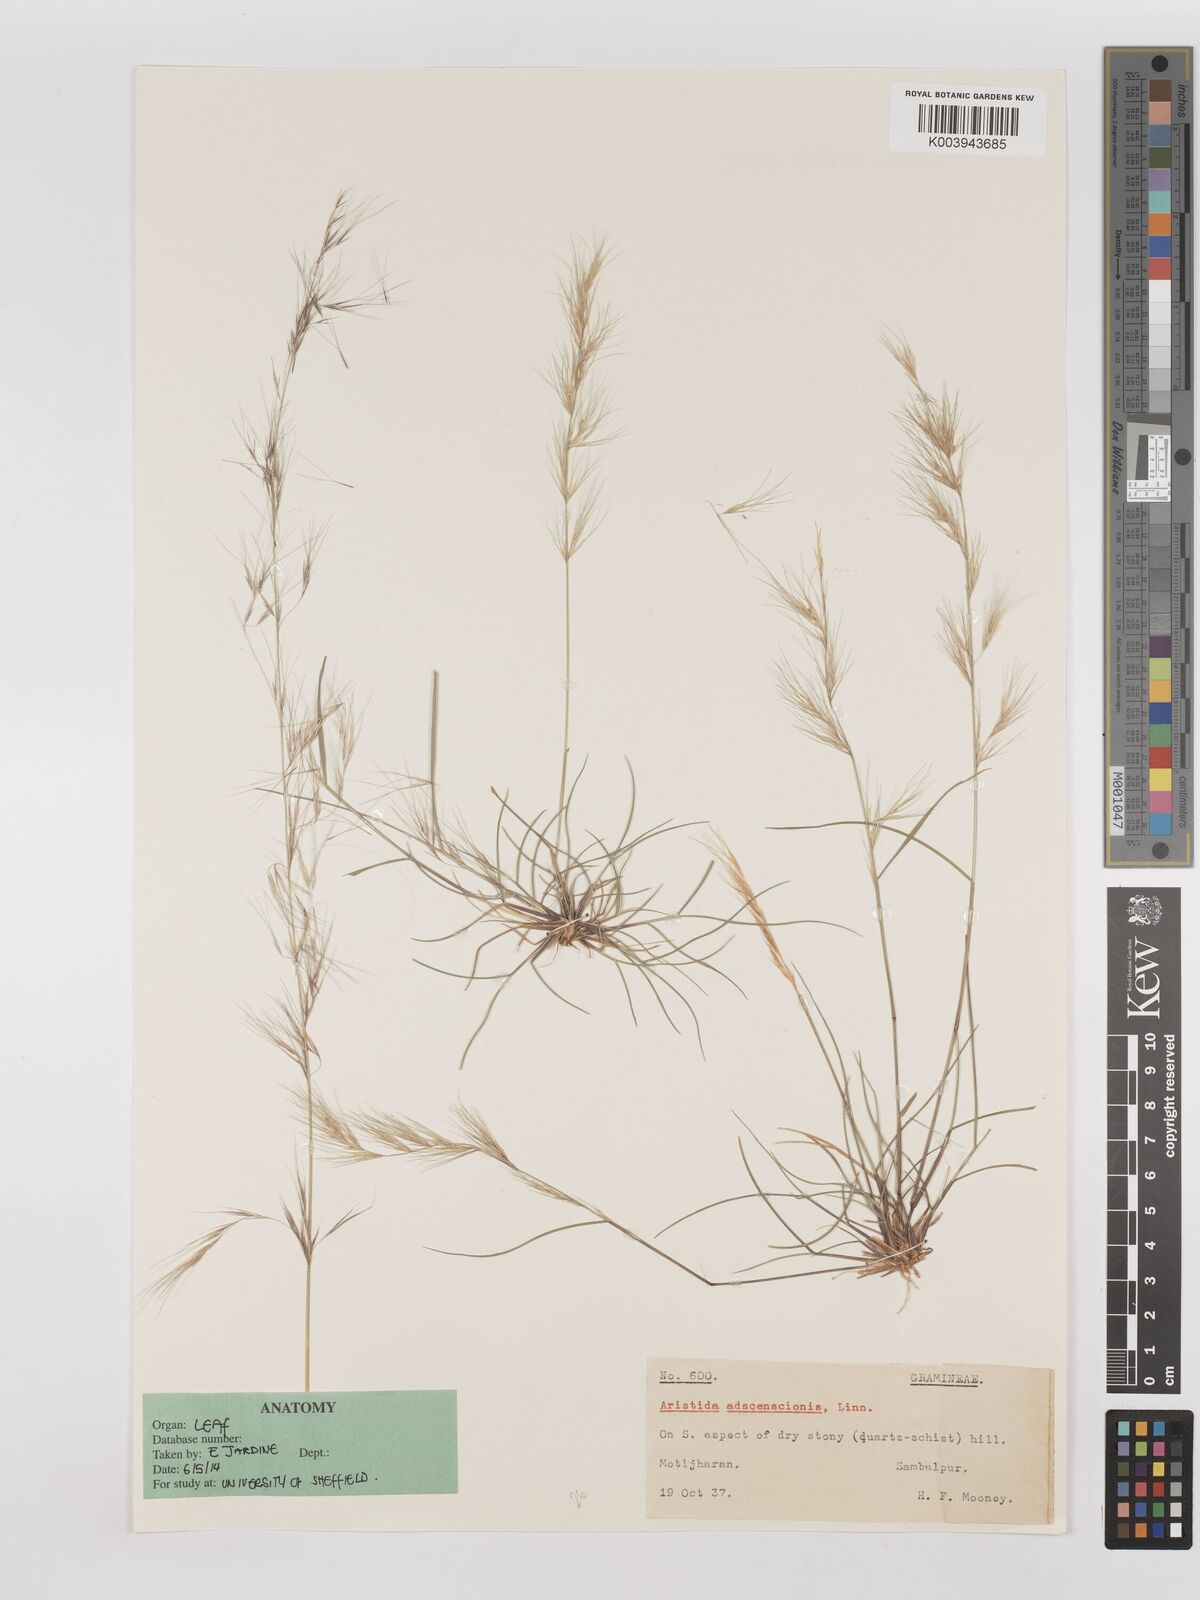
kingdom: Plantae
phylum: Tracheophyta
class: Liliopsida
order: Poales
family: Poaceae
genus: Aristida
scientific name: Aristida adscensionis
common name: Sixweeks threeawn
